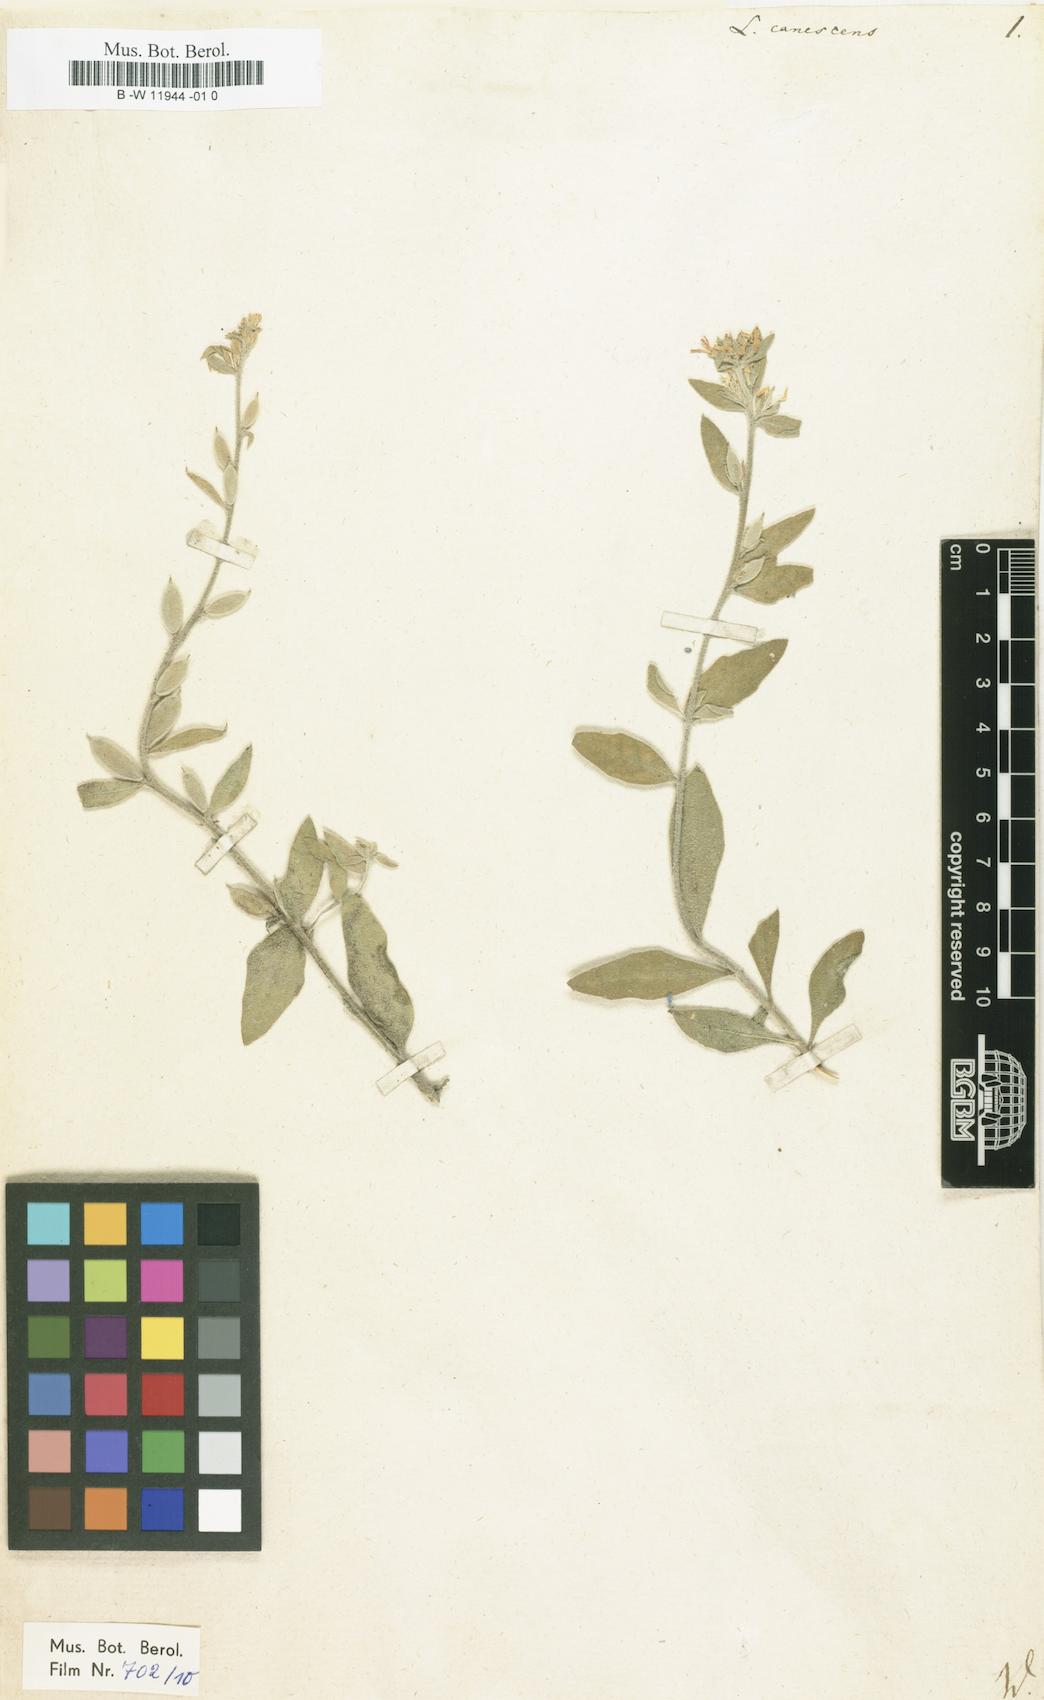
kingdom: Plantae
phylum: Tracheophyta
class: Magnoliopsida
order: Brassicales
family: Brassicaceae
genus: Fibigia
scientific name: Fibigia clypeata
